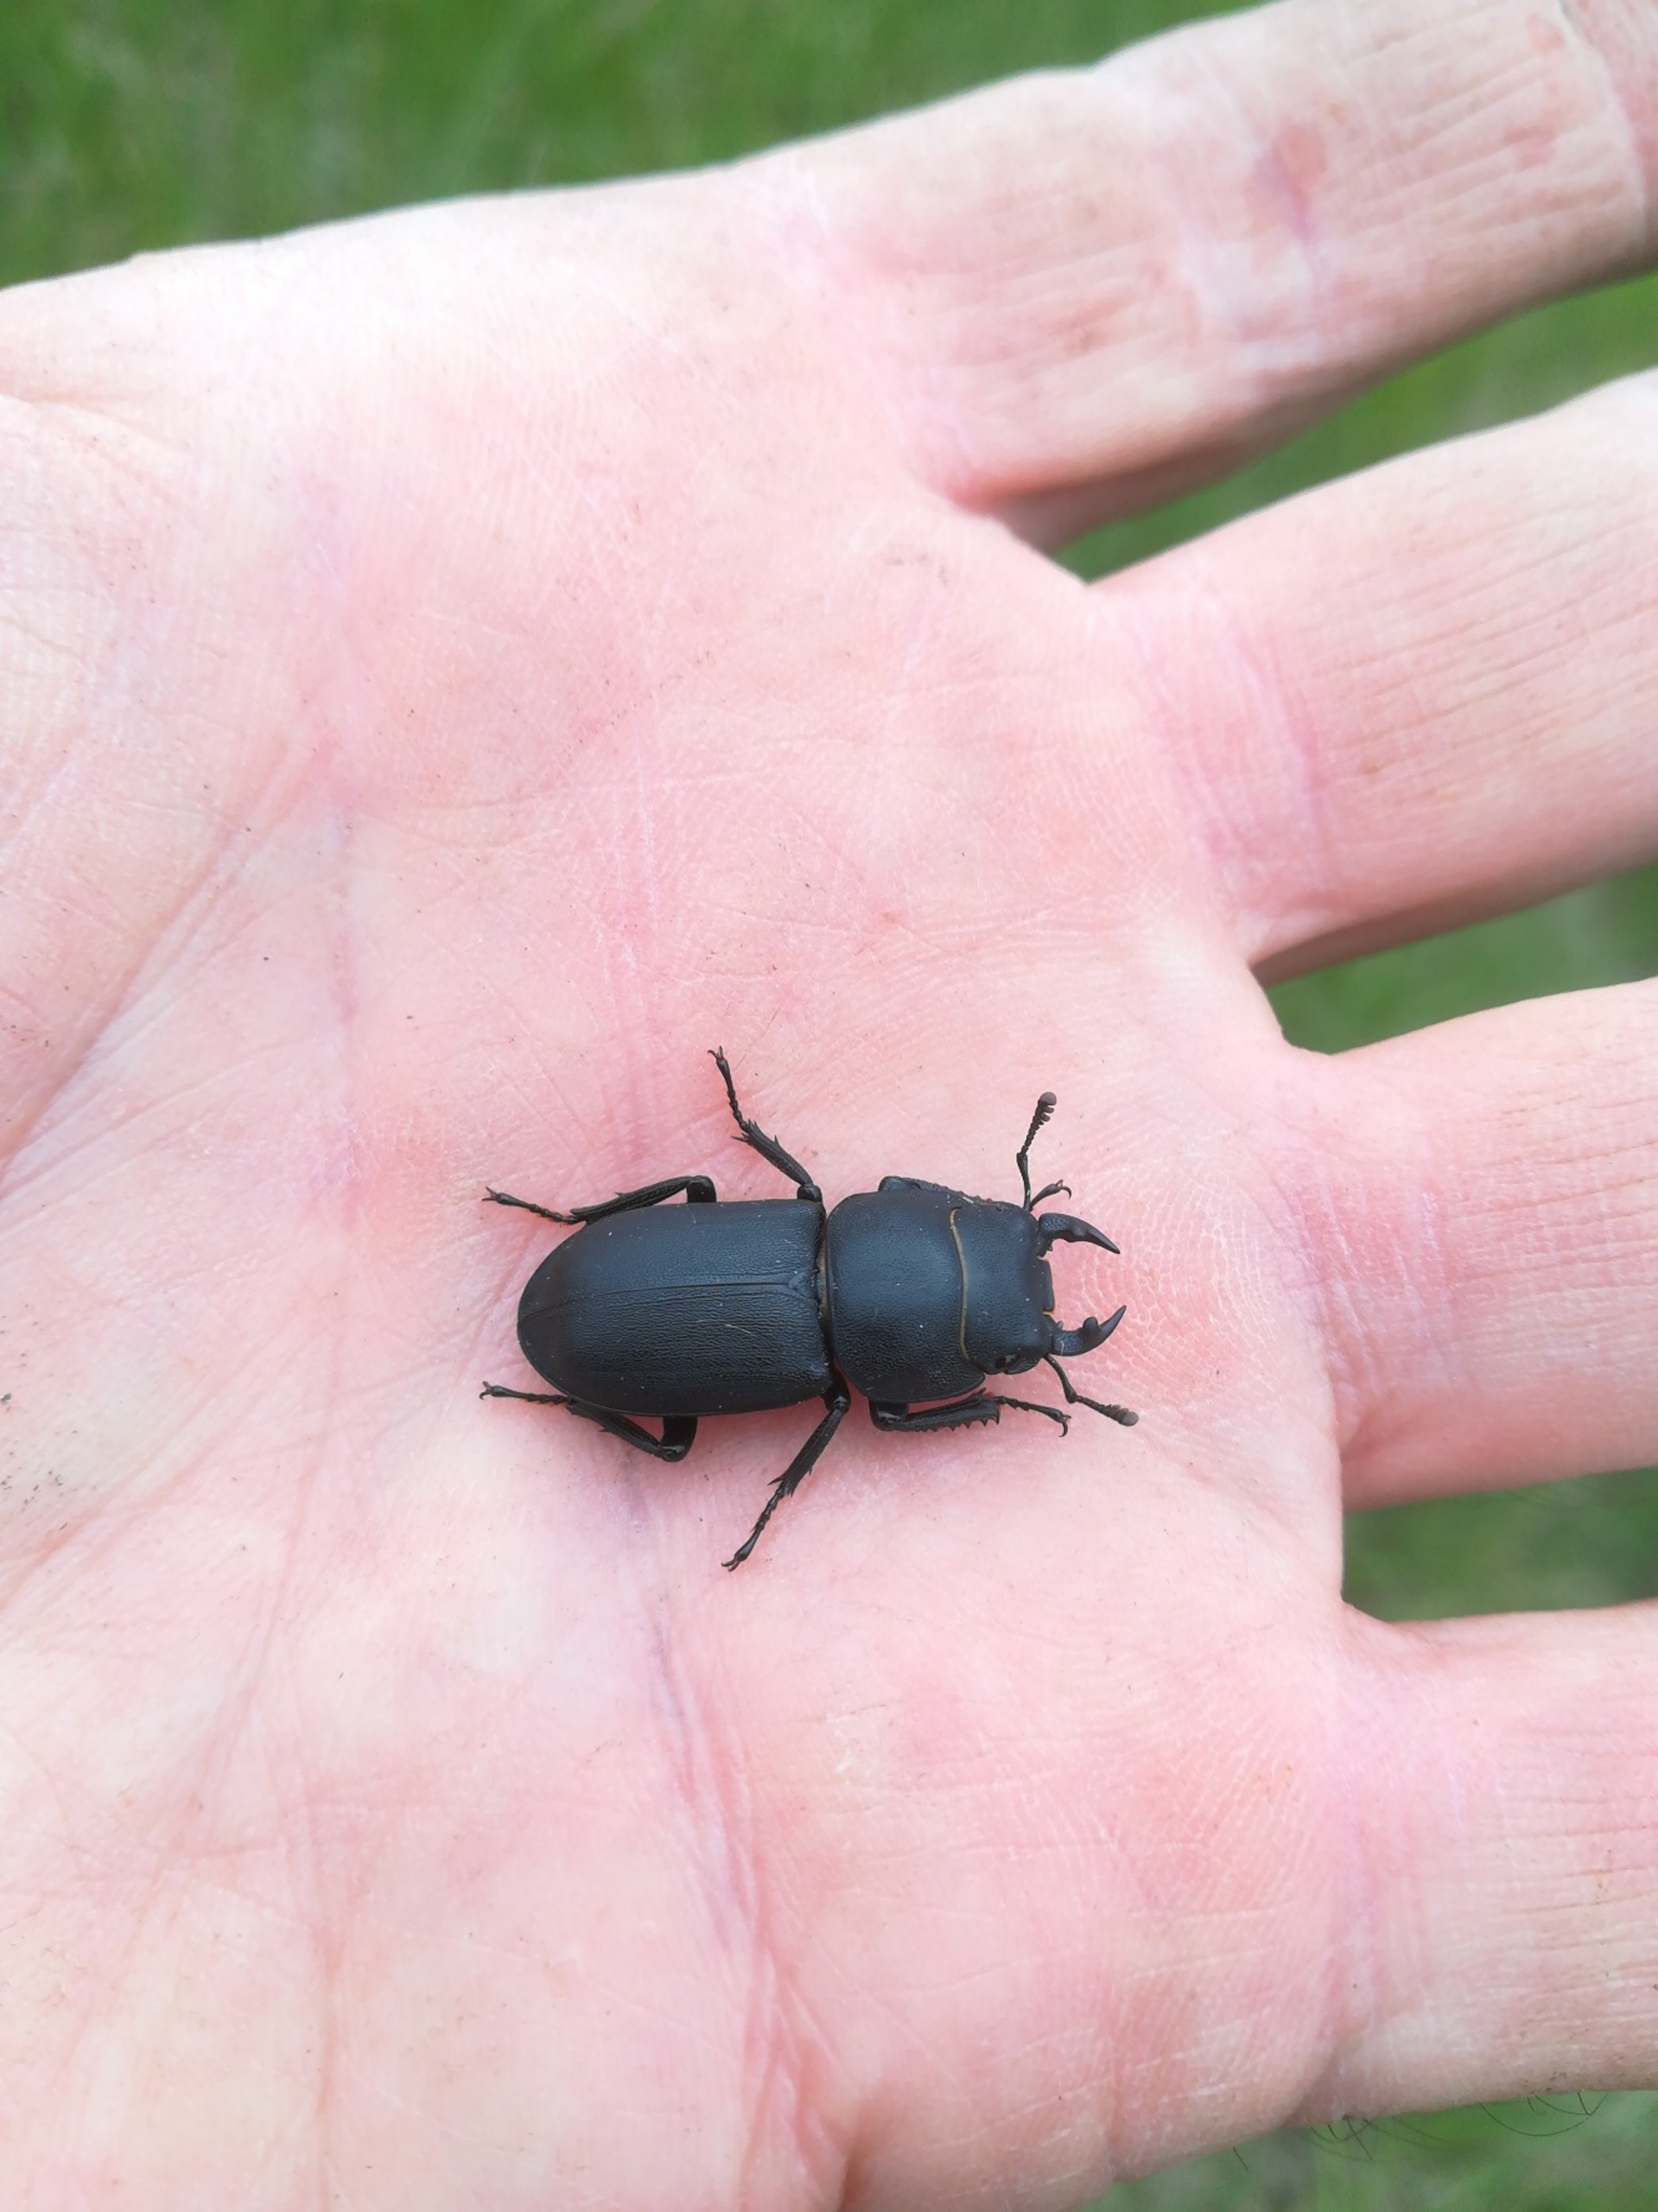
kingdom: Animalia
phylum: Arthropoda
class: Insecta
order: Coleoptera
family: Lucanidae
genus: Dorcus
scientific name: Dorcus parallelipipedus
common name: Bøghjort
